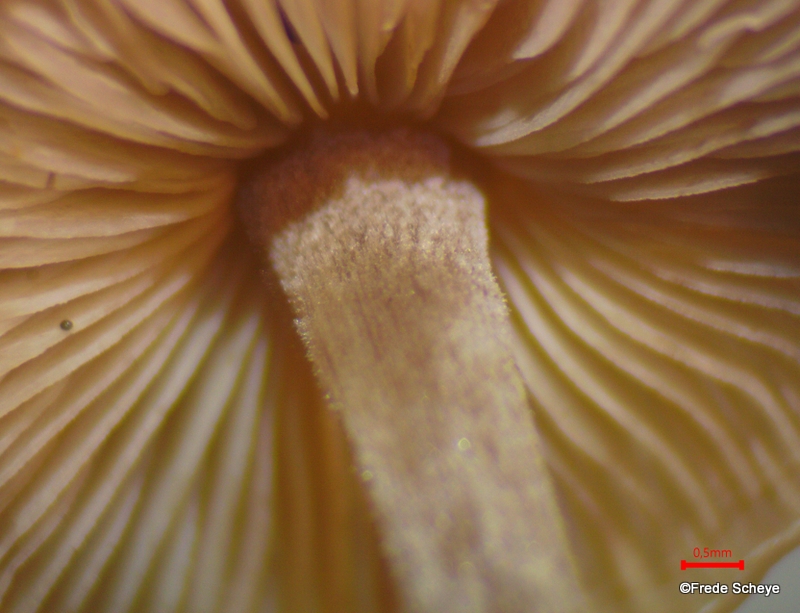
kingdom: Fungi
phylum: Basidiomycota
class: Agaricomycetes
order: Agaricales
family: Marasmiaceae
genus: Baeospora
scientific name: Baeospora myosura
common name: koglebruskhat
